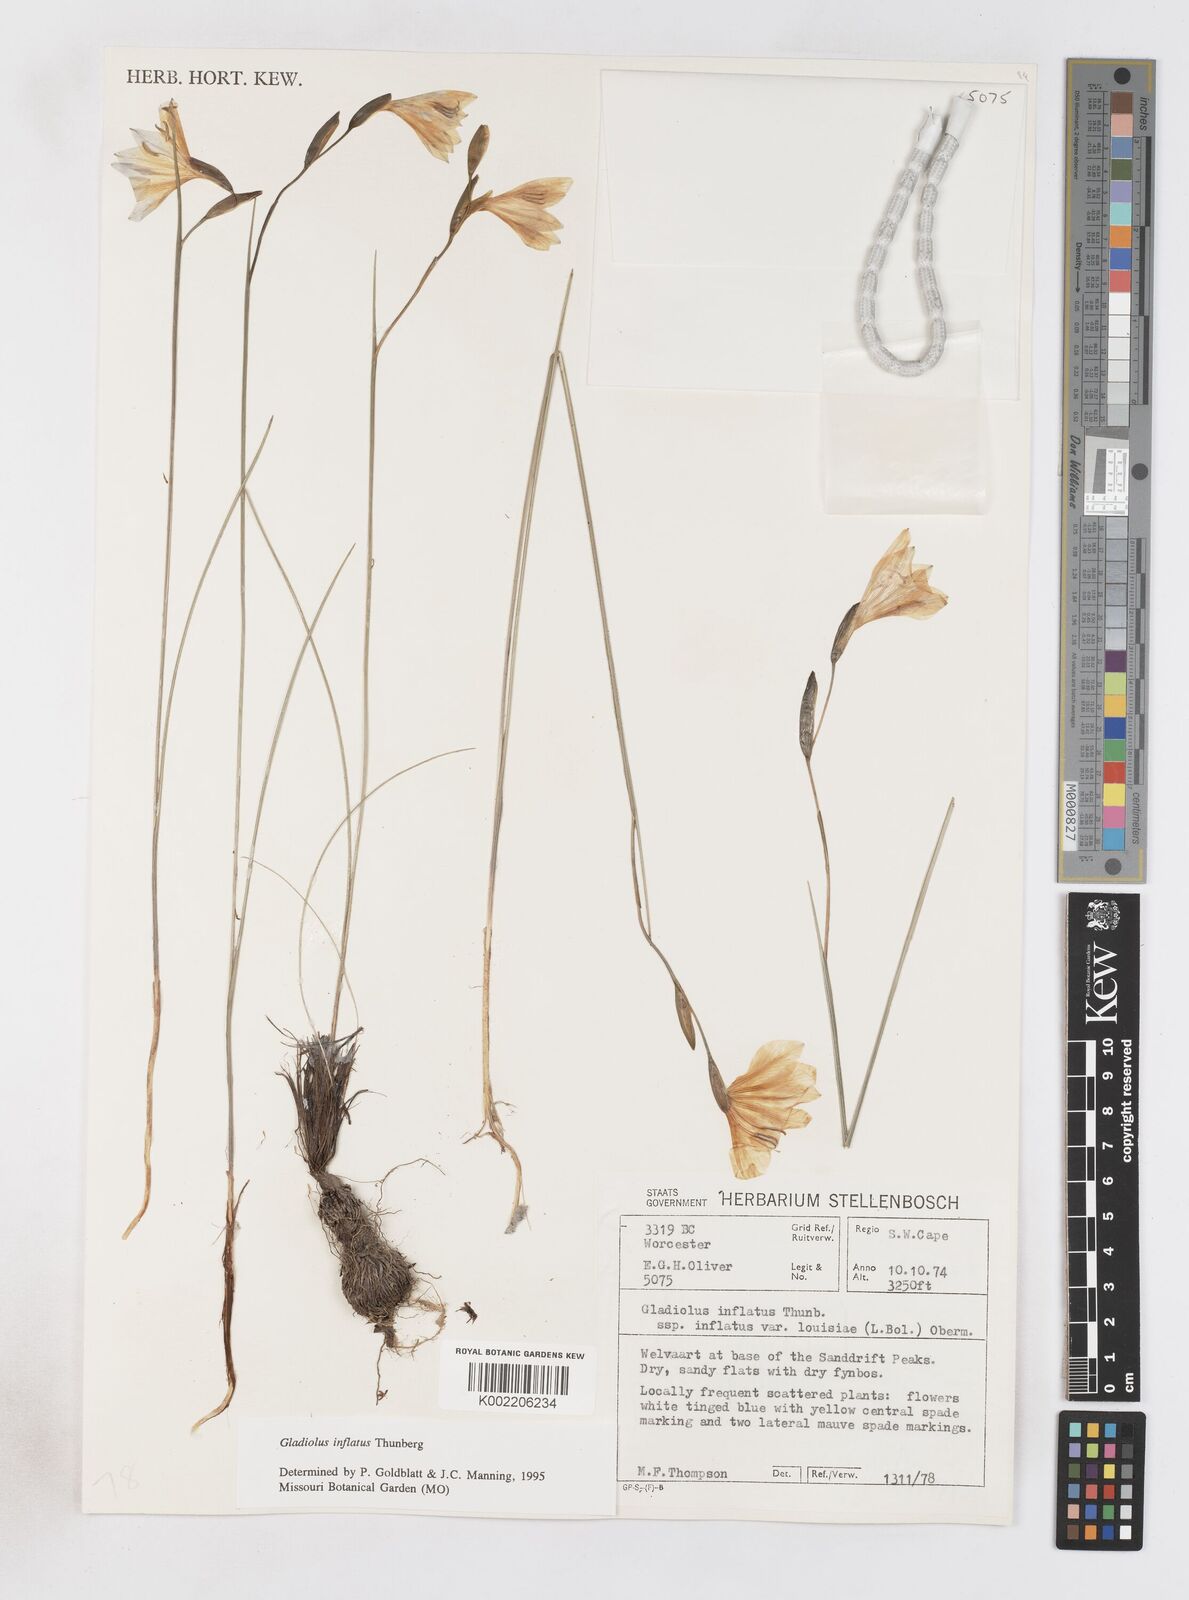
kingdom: Plantae
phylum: Tracheophyta
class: Liliopsida
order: Asparagales
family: Iridaceae
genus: Gladiolus
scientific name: Gladiolus inflatus
